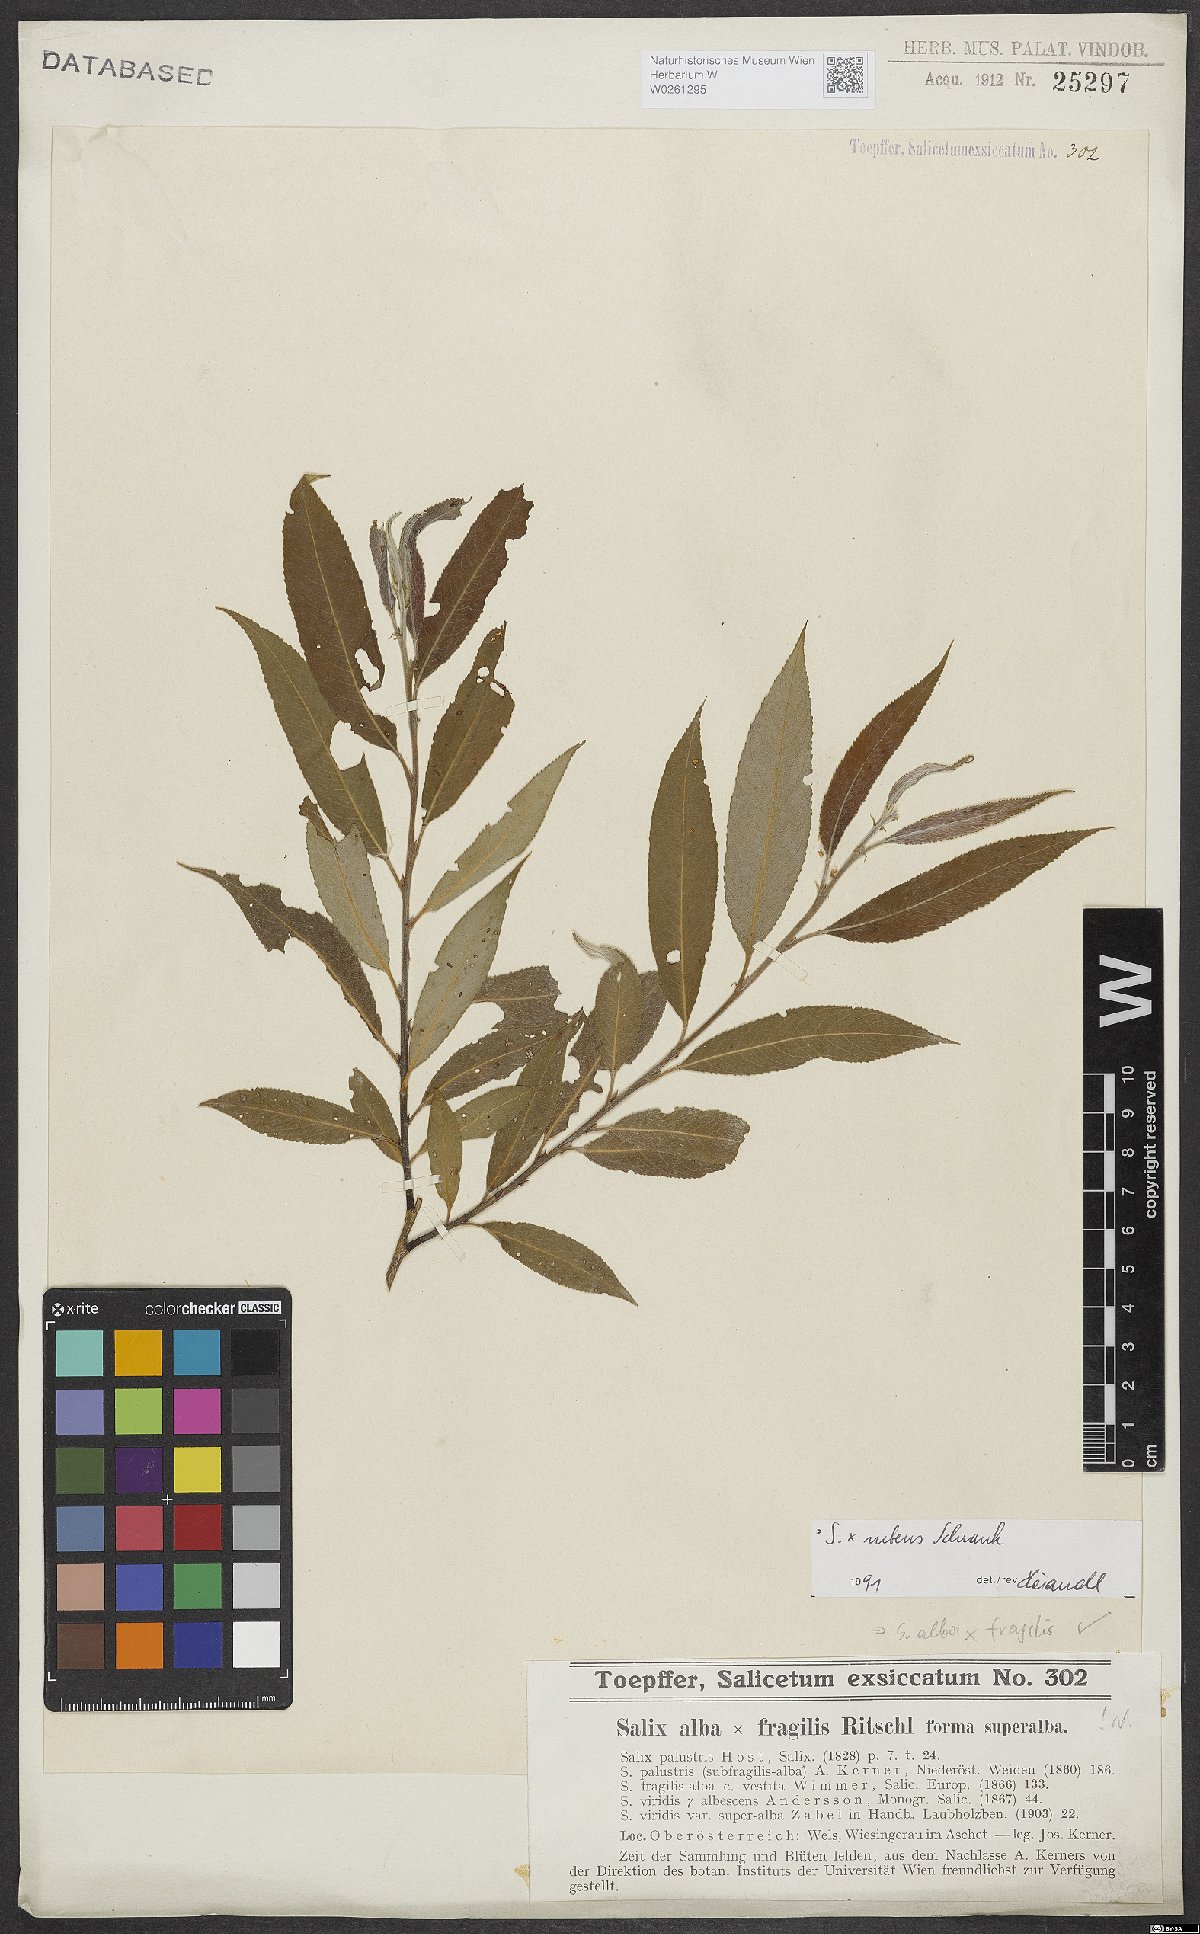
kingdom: Plantae
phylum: Tracheophyta
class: Magnoliopsida
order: Malpighiales
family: Salicaceae
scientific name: Salicaceae
